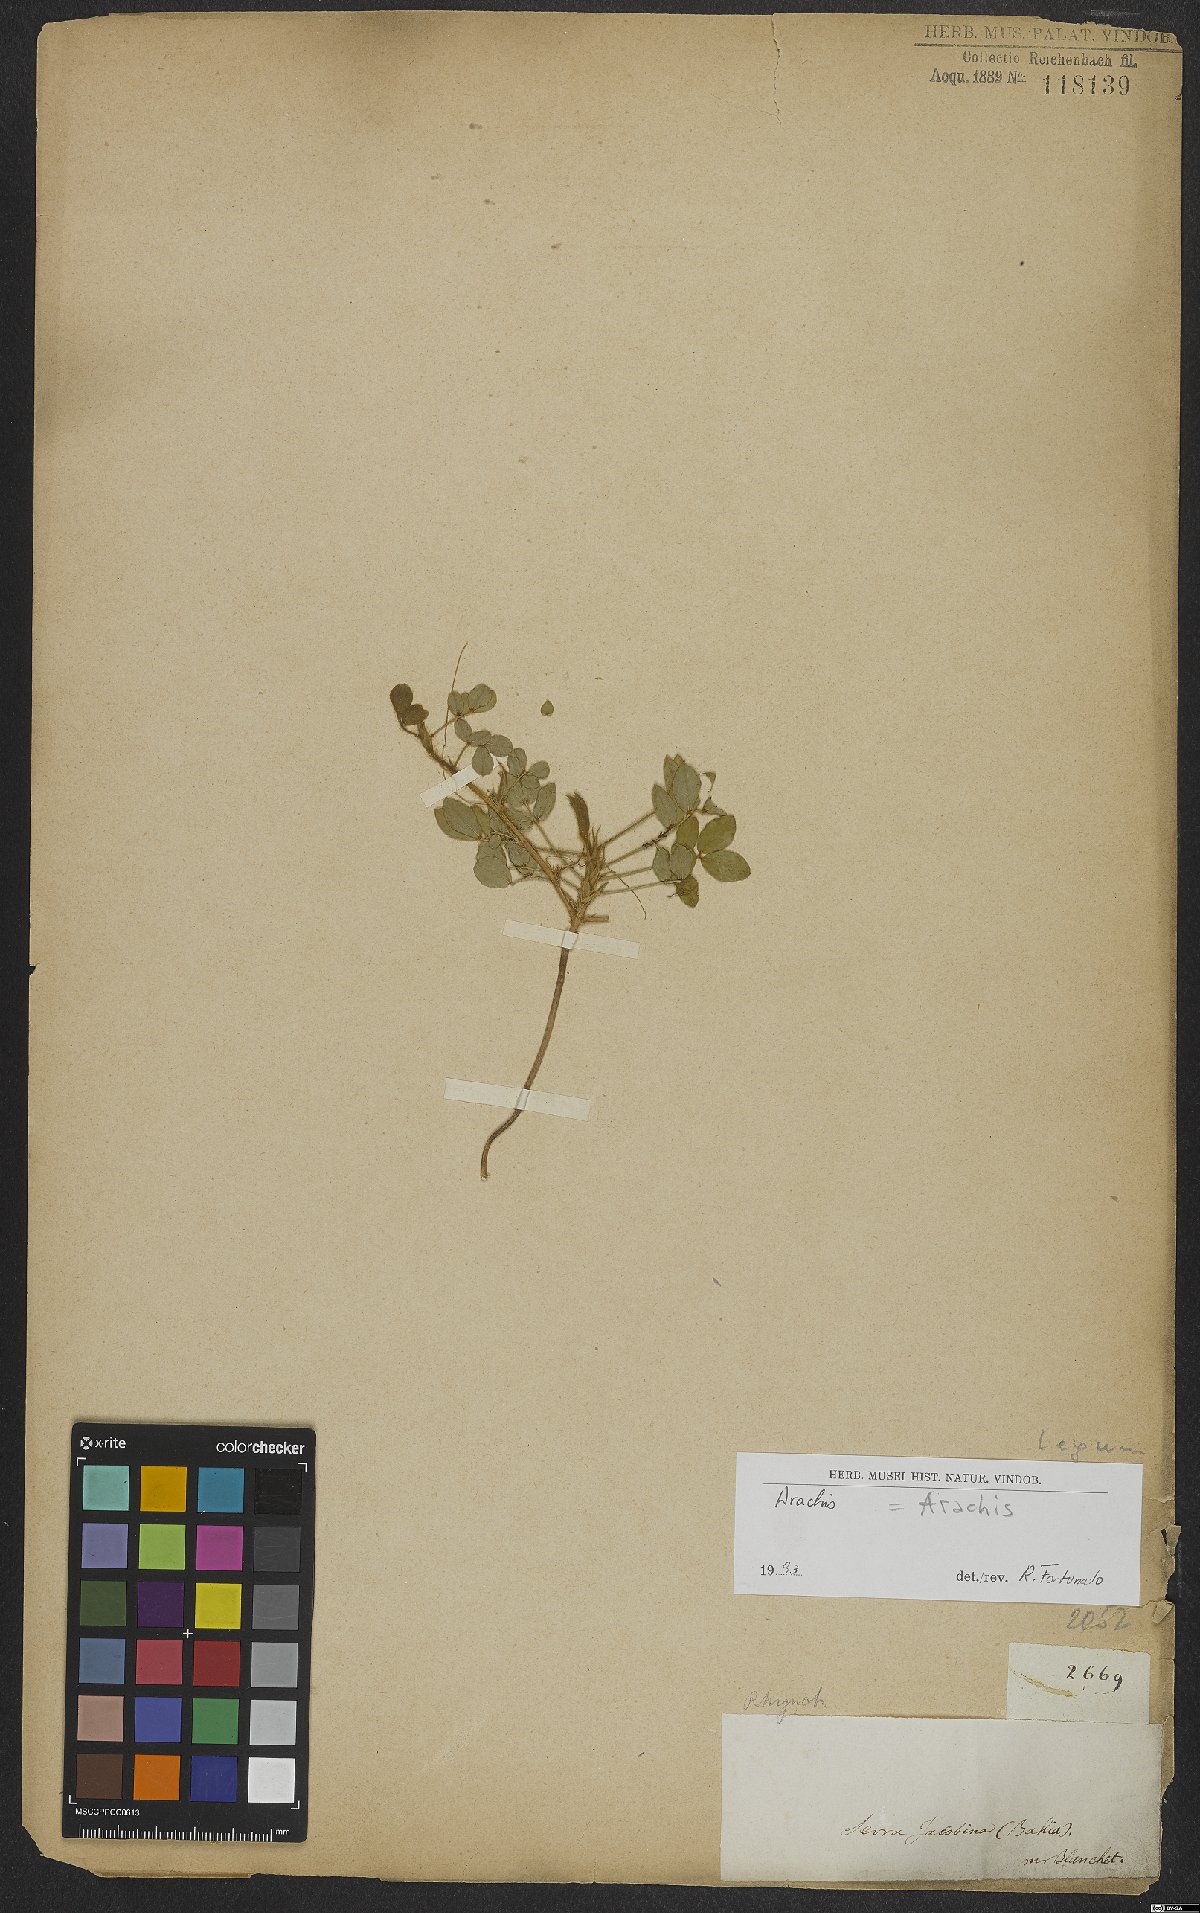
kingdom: Plantae
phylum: Tracheophyta
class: Magnoliopsida
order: Fabales
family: Fabaceae
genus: Arachis
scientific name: Arachis
